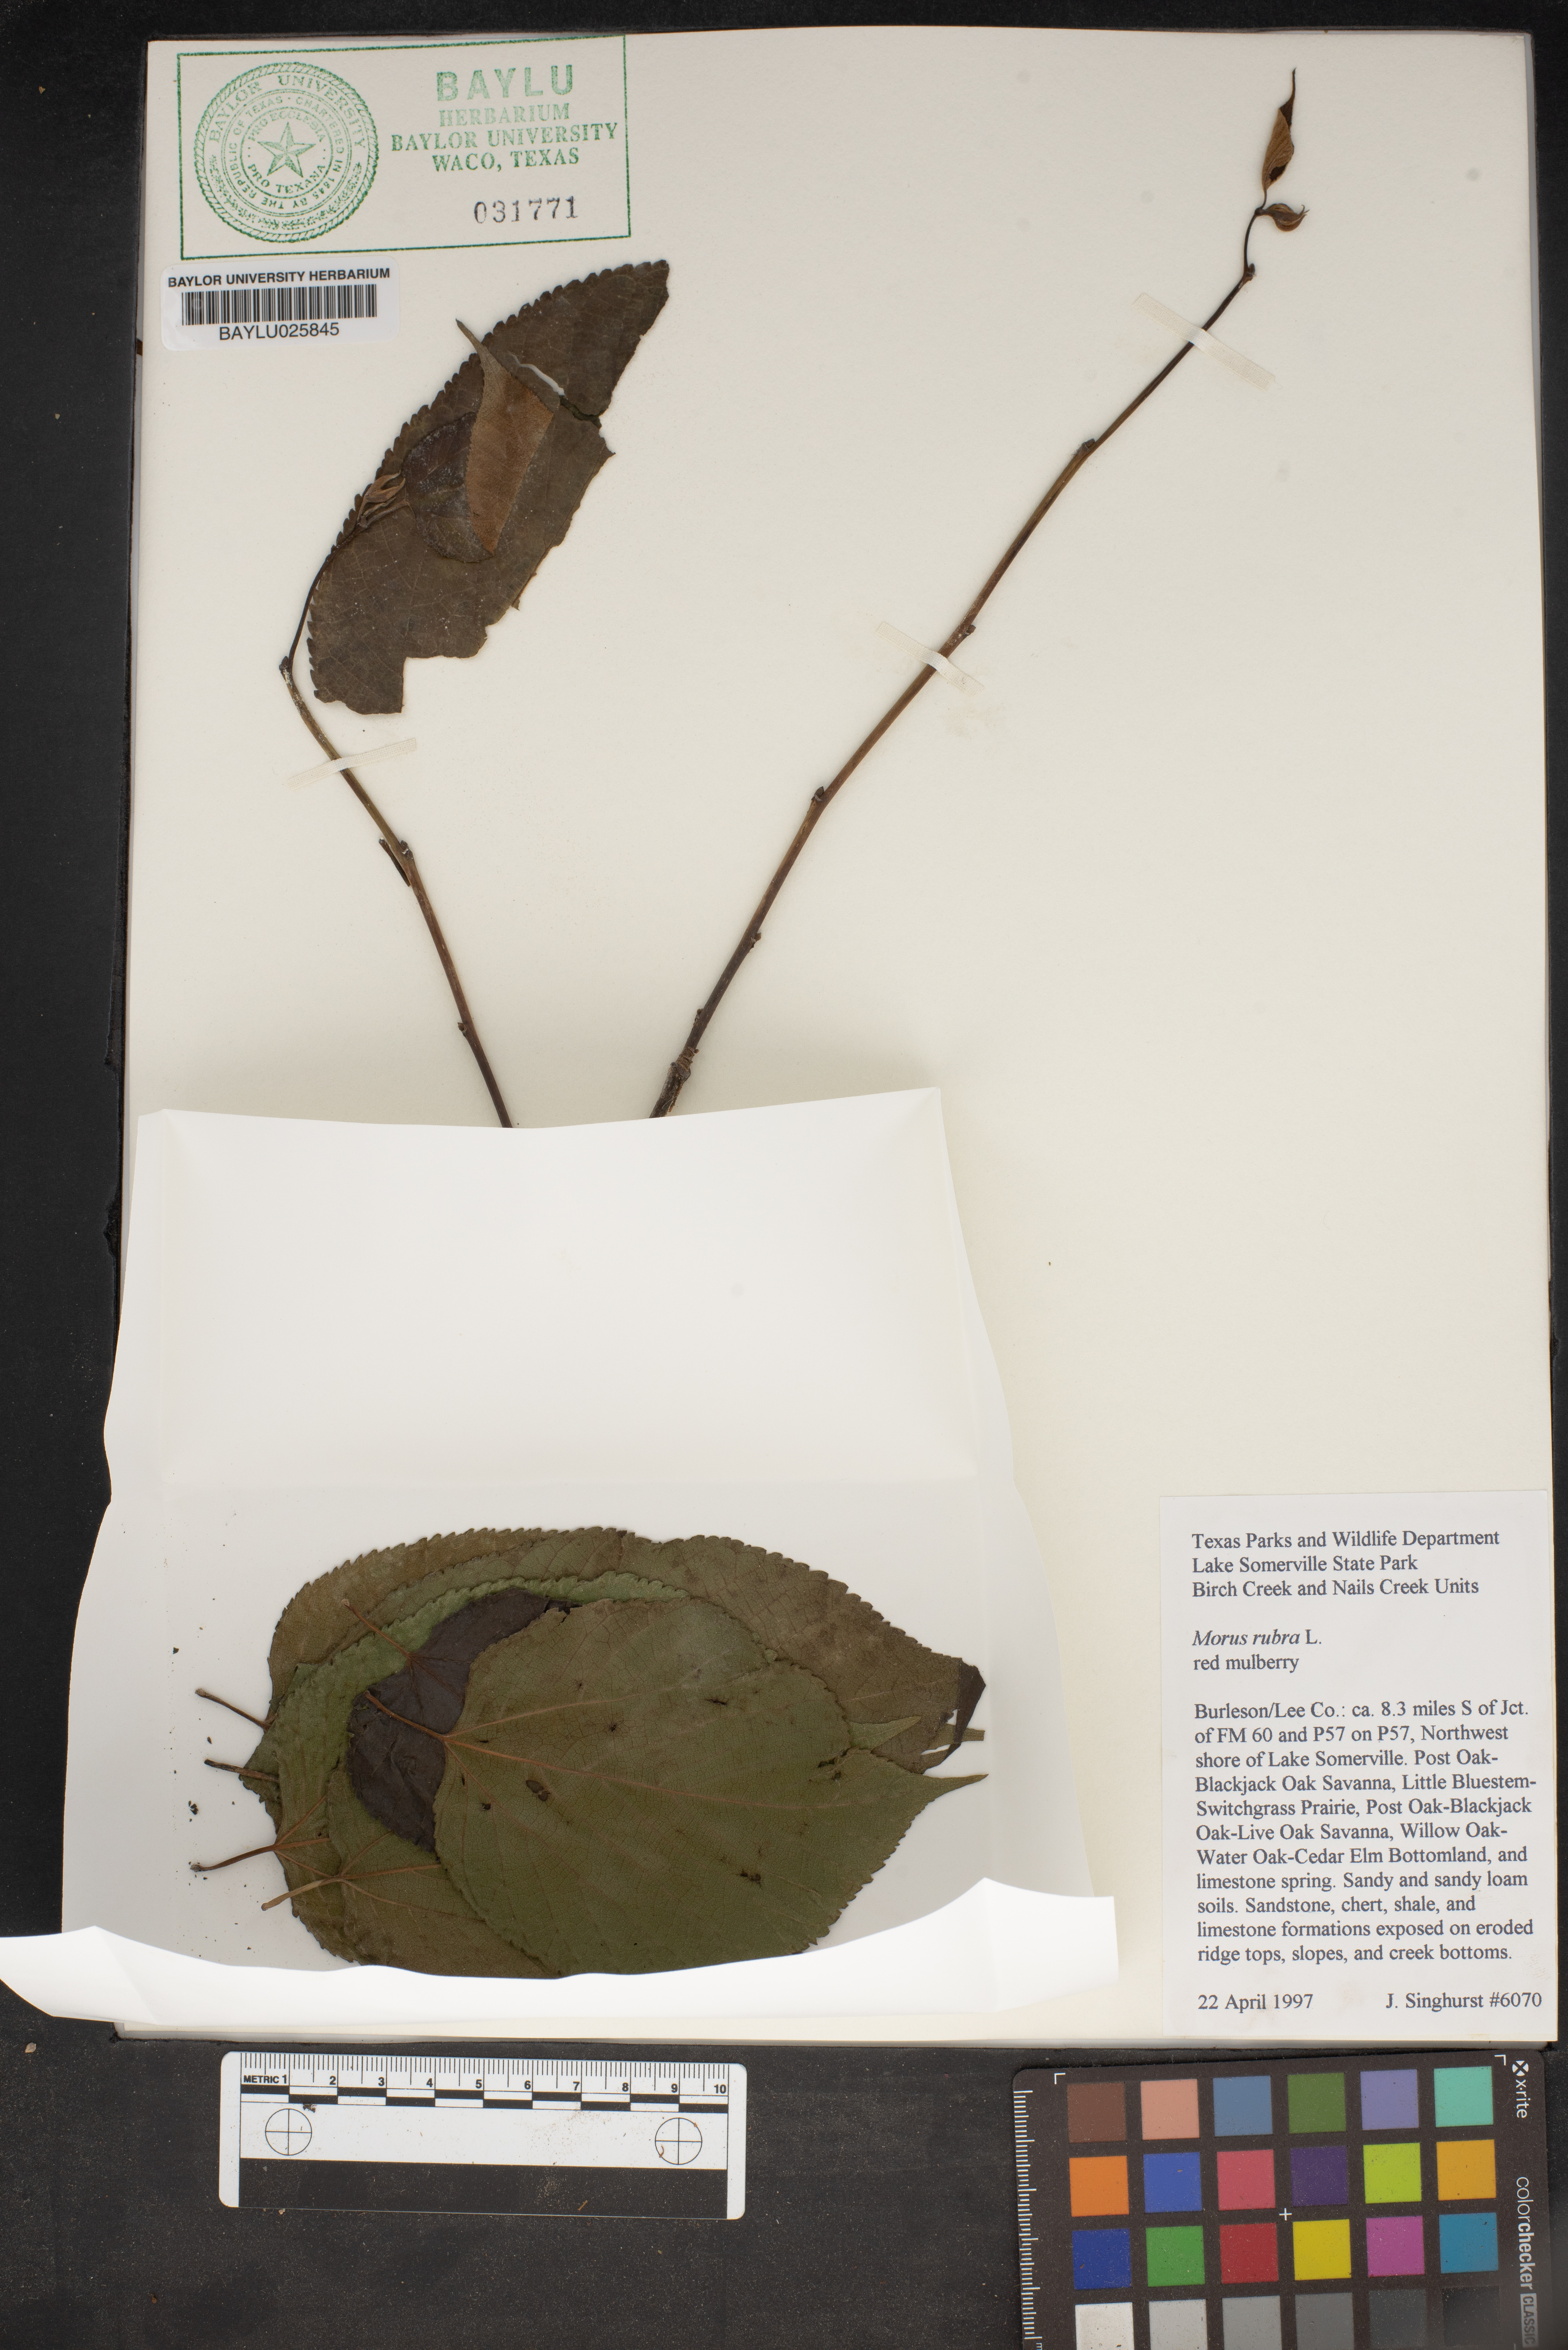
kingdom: Plantae
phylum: Tracheophyta
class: Magnoliopsida
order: Rosales
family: Moraceae
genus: Morus
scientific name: Morus rubra
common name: Red mulberry
